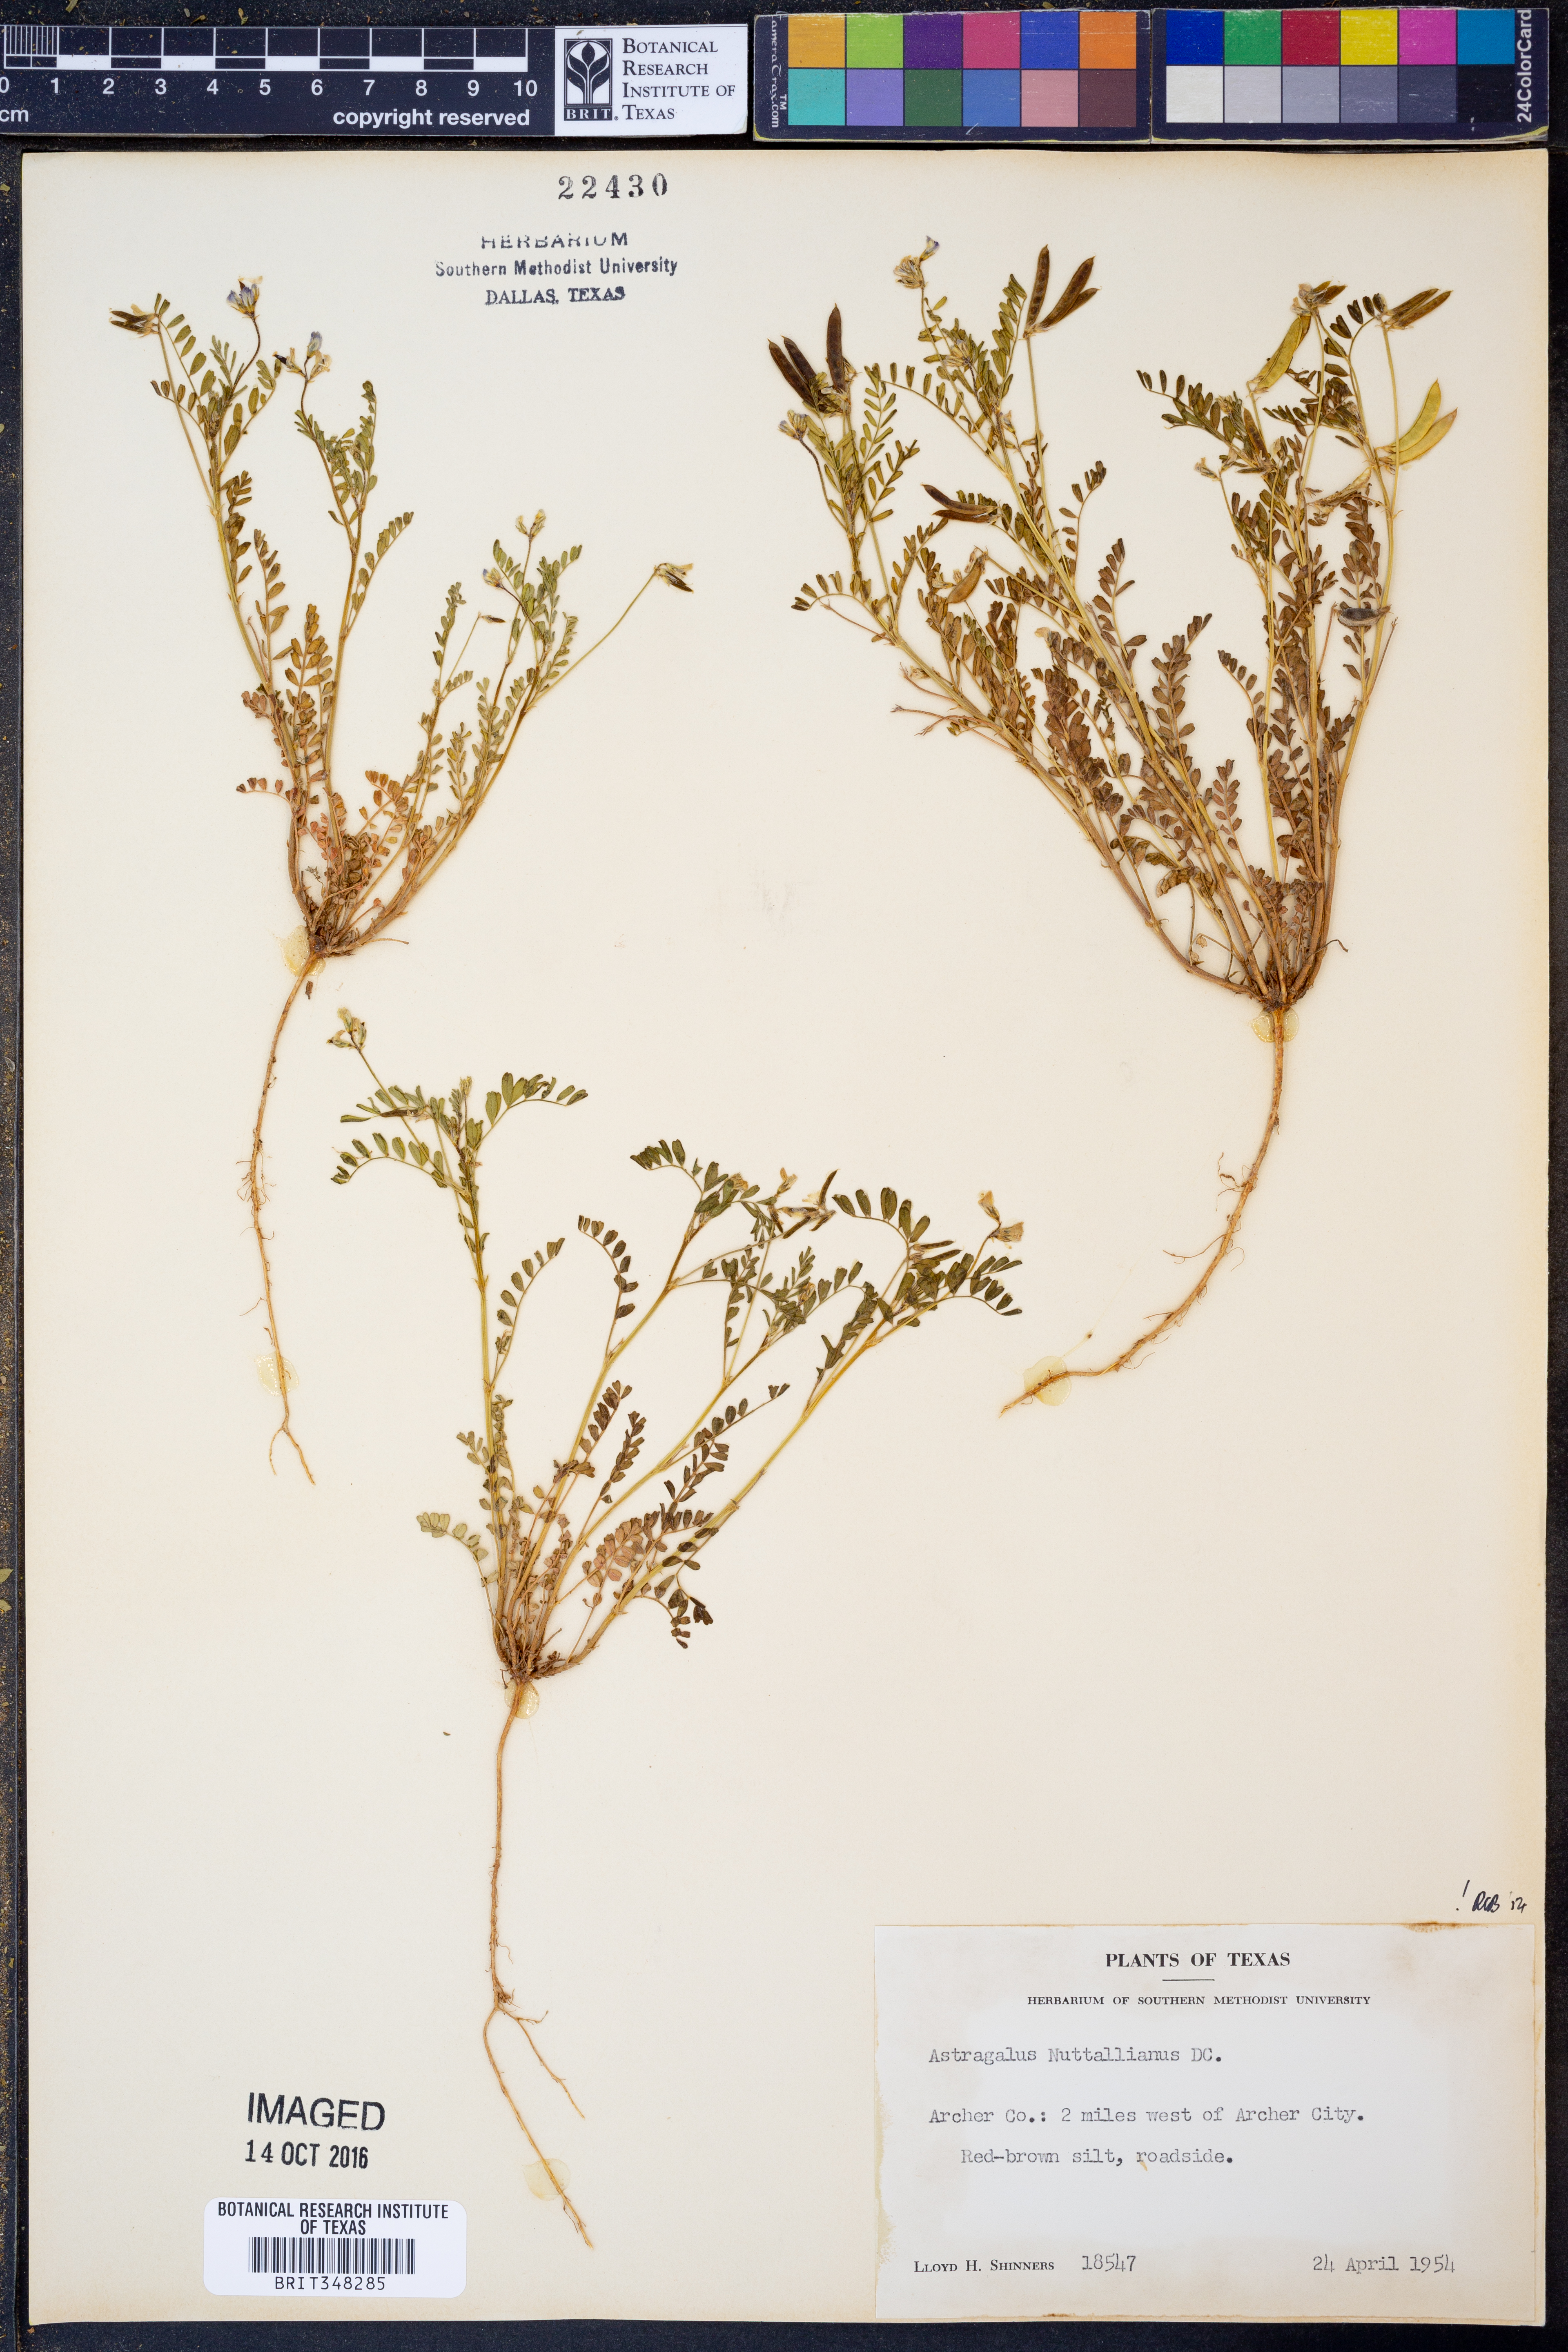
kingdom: Plantae
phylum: Tracheophyta
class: Magnoliopsida
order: Fabales
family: Fabaceae
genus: Astragalus
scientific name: Astragalus nuttallianus
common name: Smallflowered milkvetch
